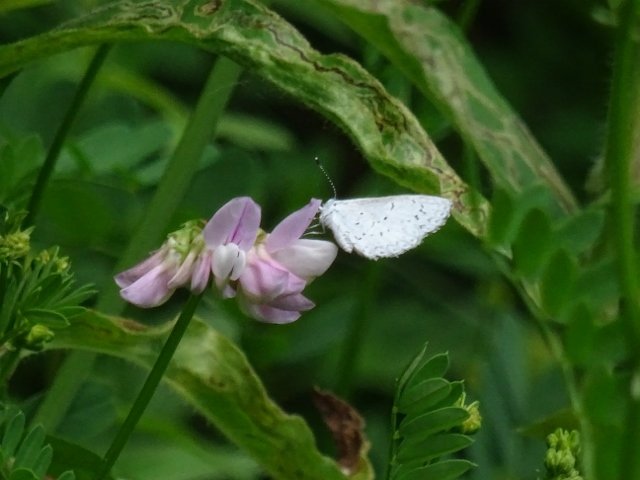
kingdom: Animalia
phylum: Arthropoda
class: Insecta
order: Lepidoptera
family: Lycaenidae
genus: Celastrina
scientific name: Celastrina
